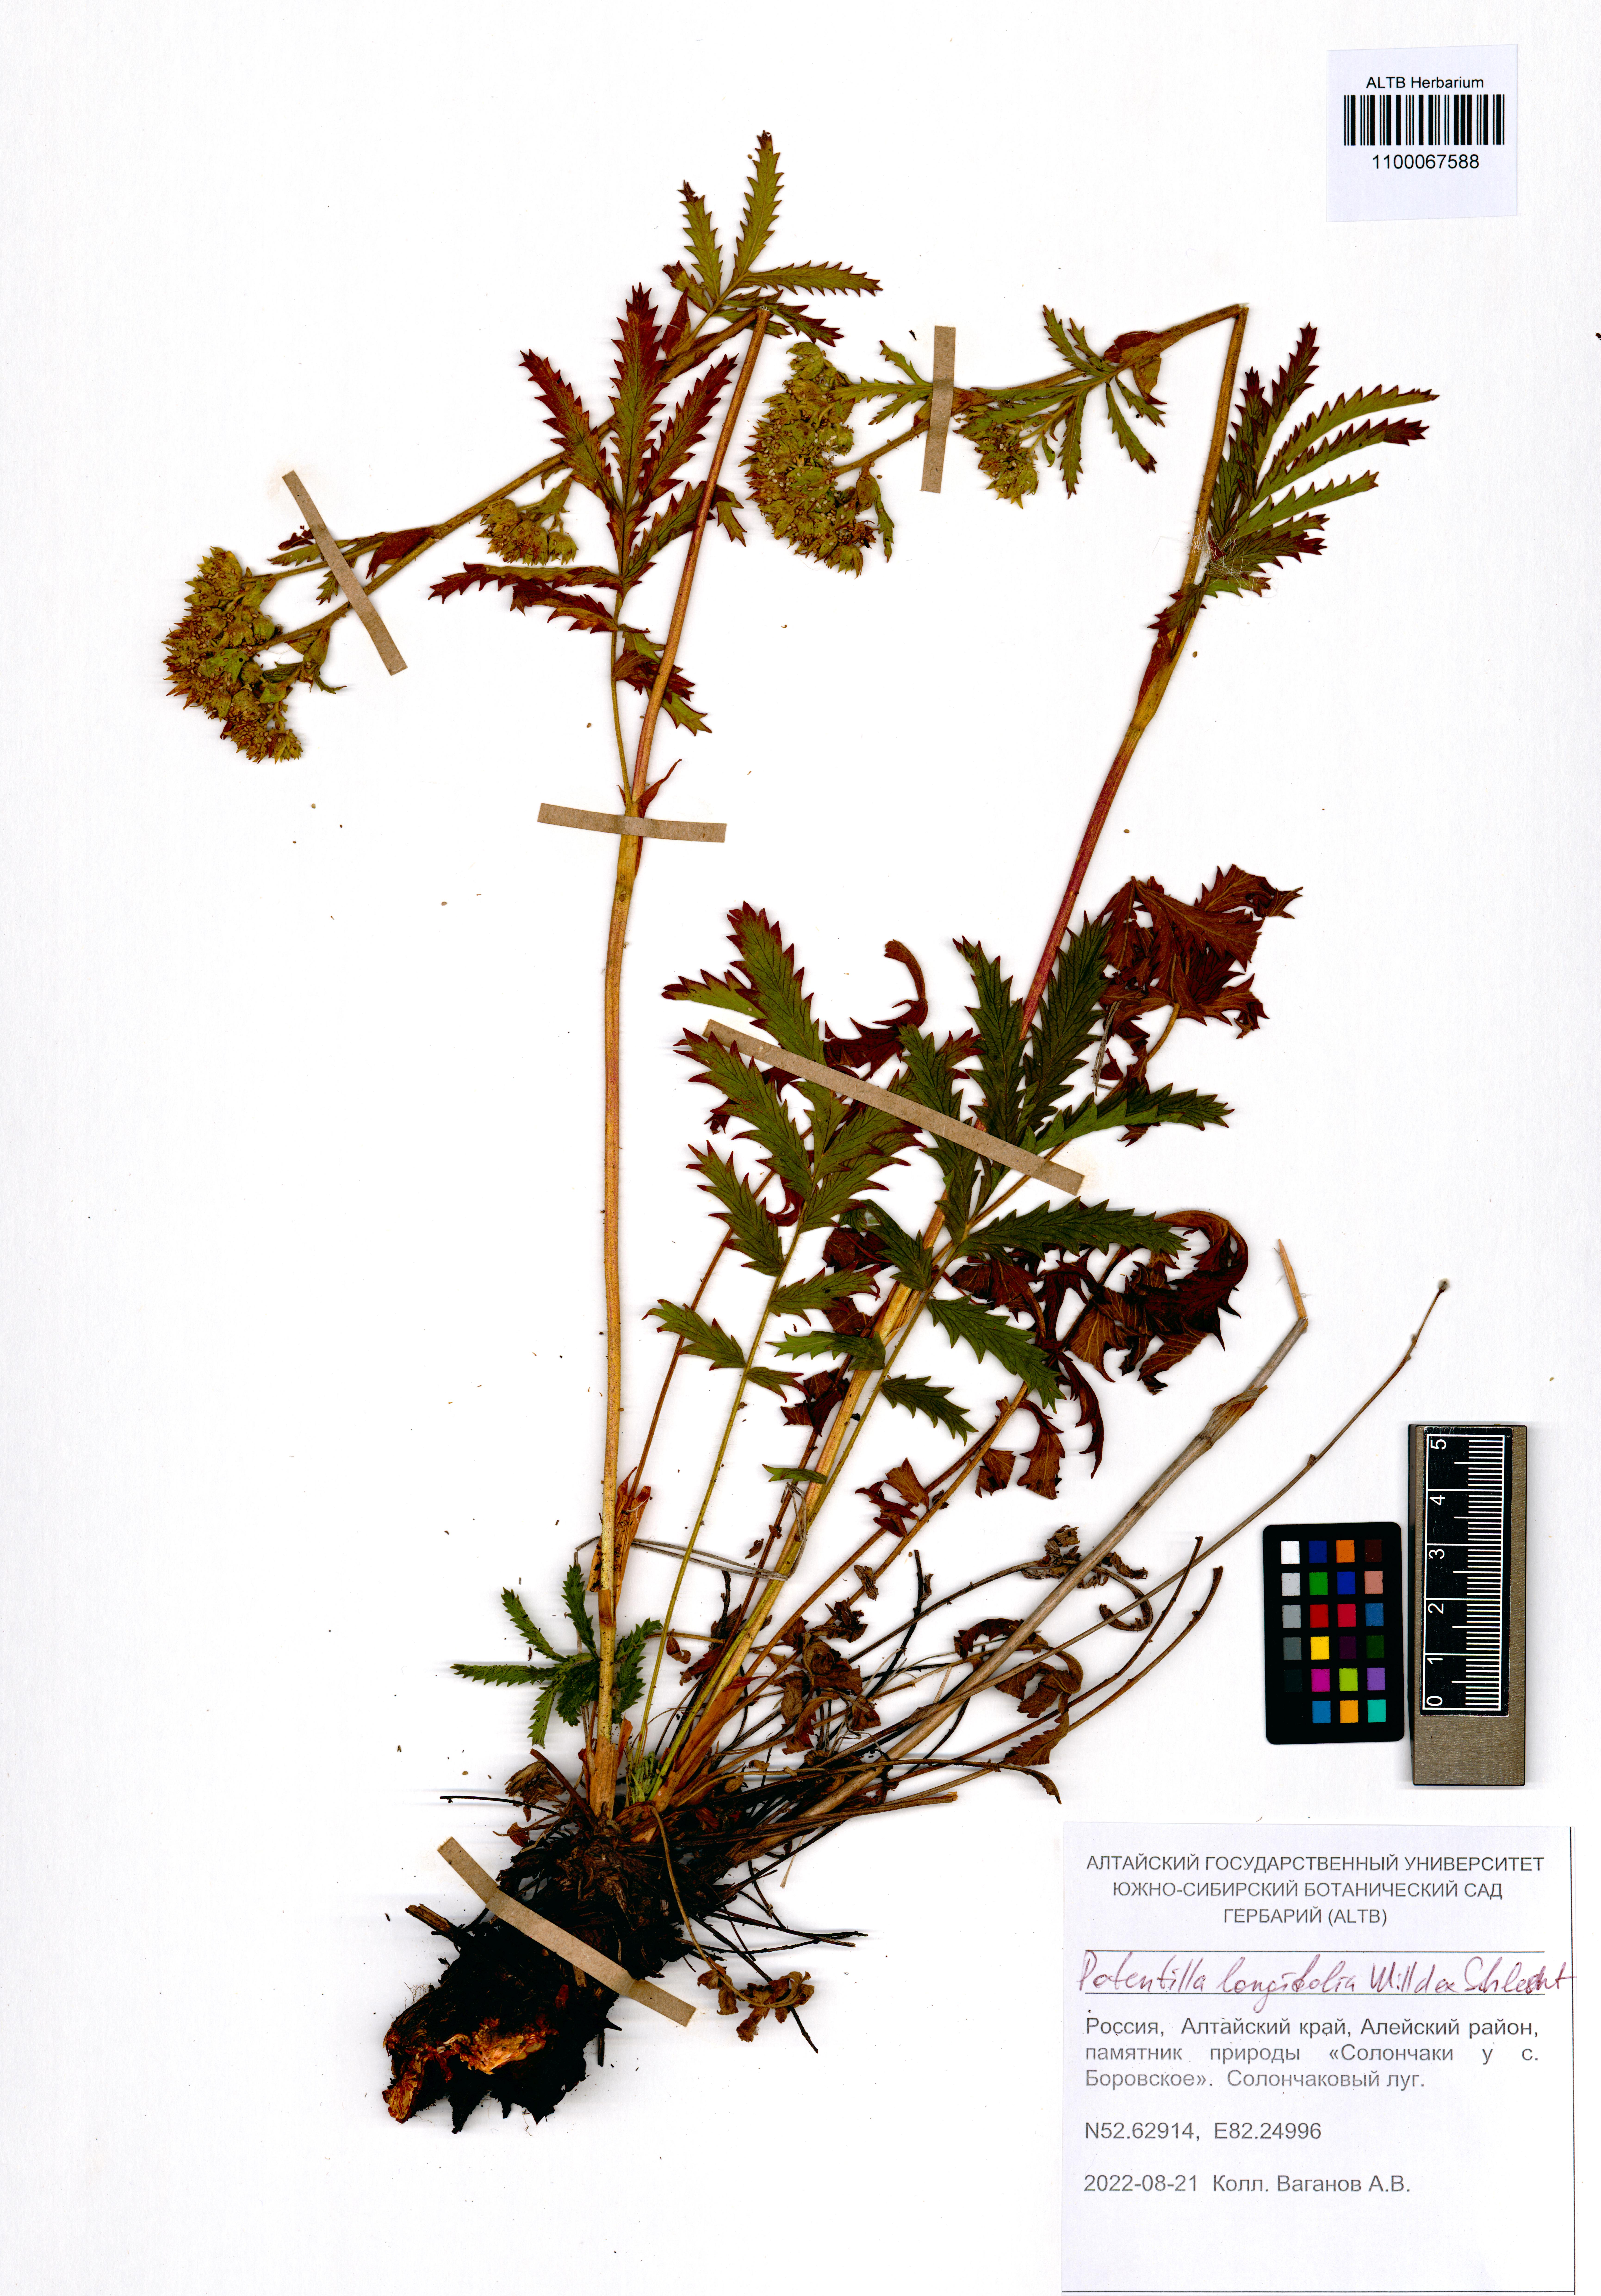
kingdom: Plantae
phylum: Tracheophyta
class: Magnoliopsida
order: Rosales
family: Rosaceae
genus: Potentilla
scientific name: Potentilla longifolia
